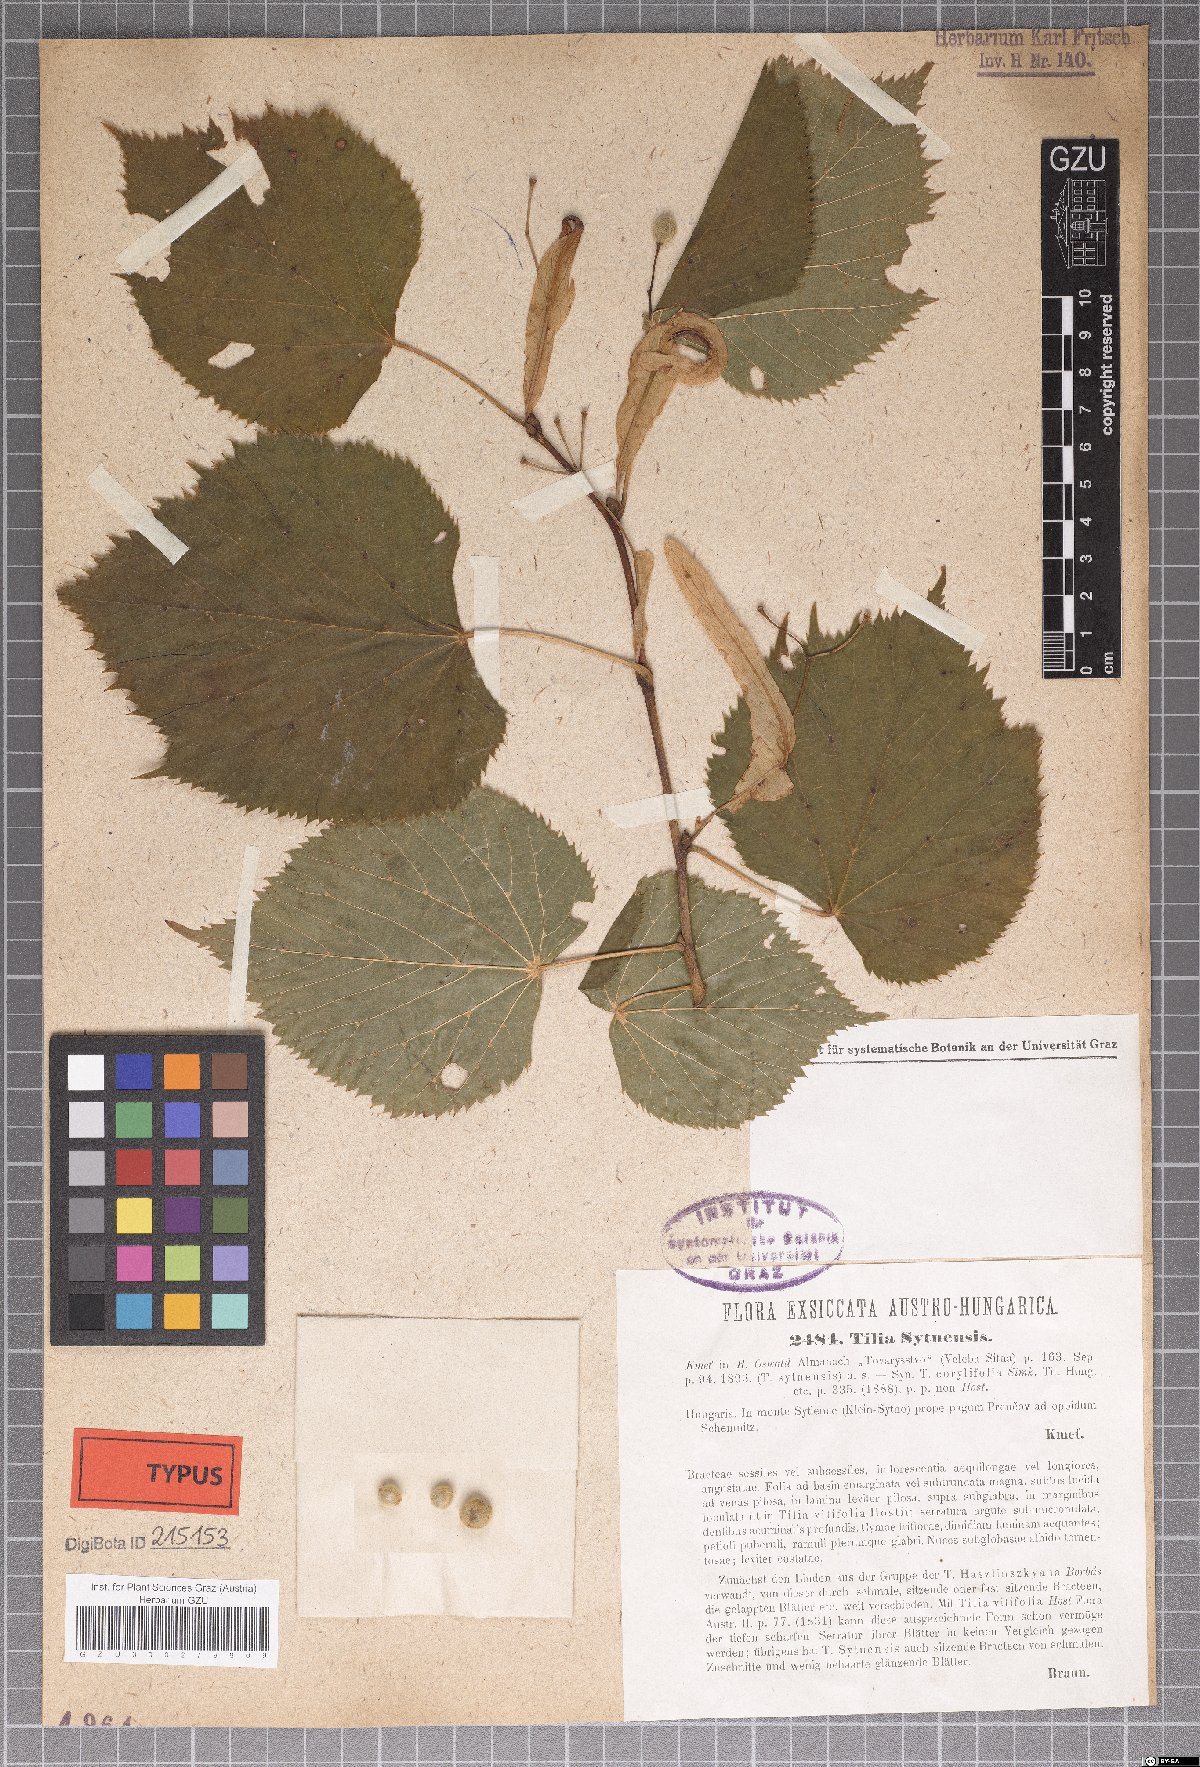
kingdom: Plantae
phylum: Tracheophyta
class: Magnoliopsida
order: Malvales
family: Malvaceae
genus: Tilia
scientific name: Tilia platyphyllos
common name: Large-leaved lime
